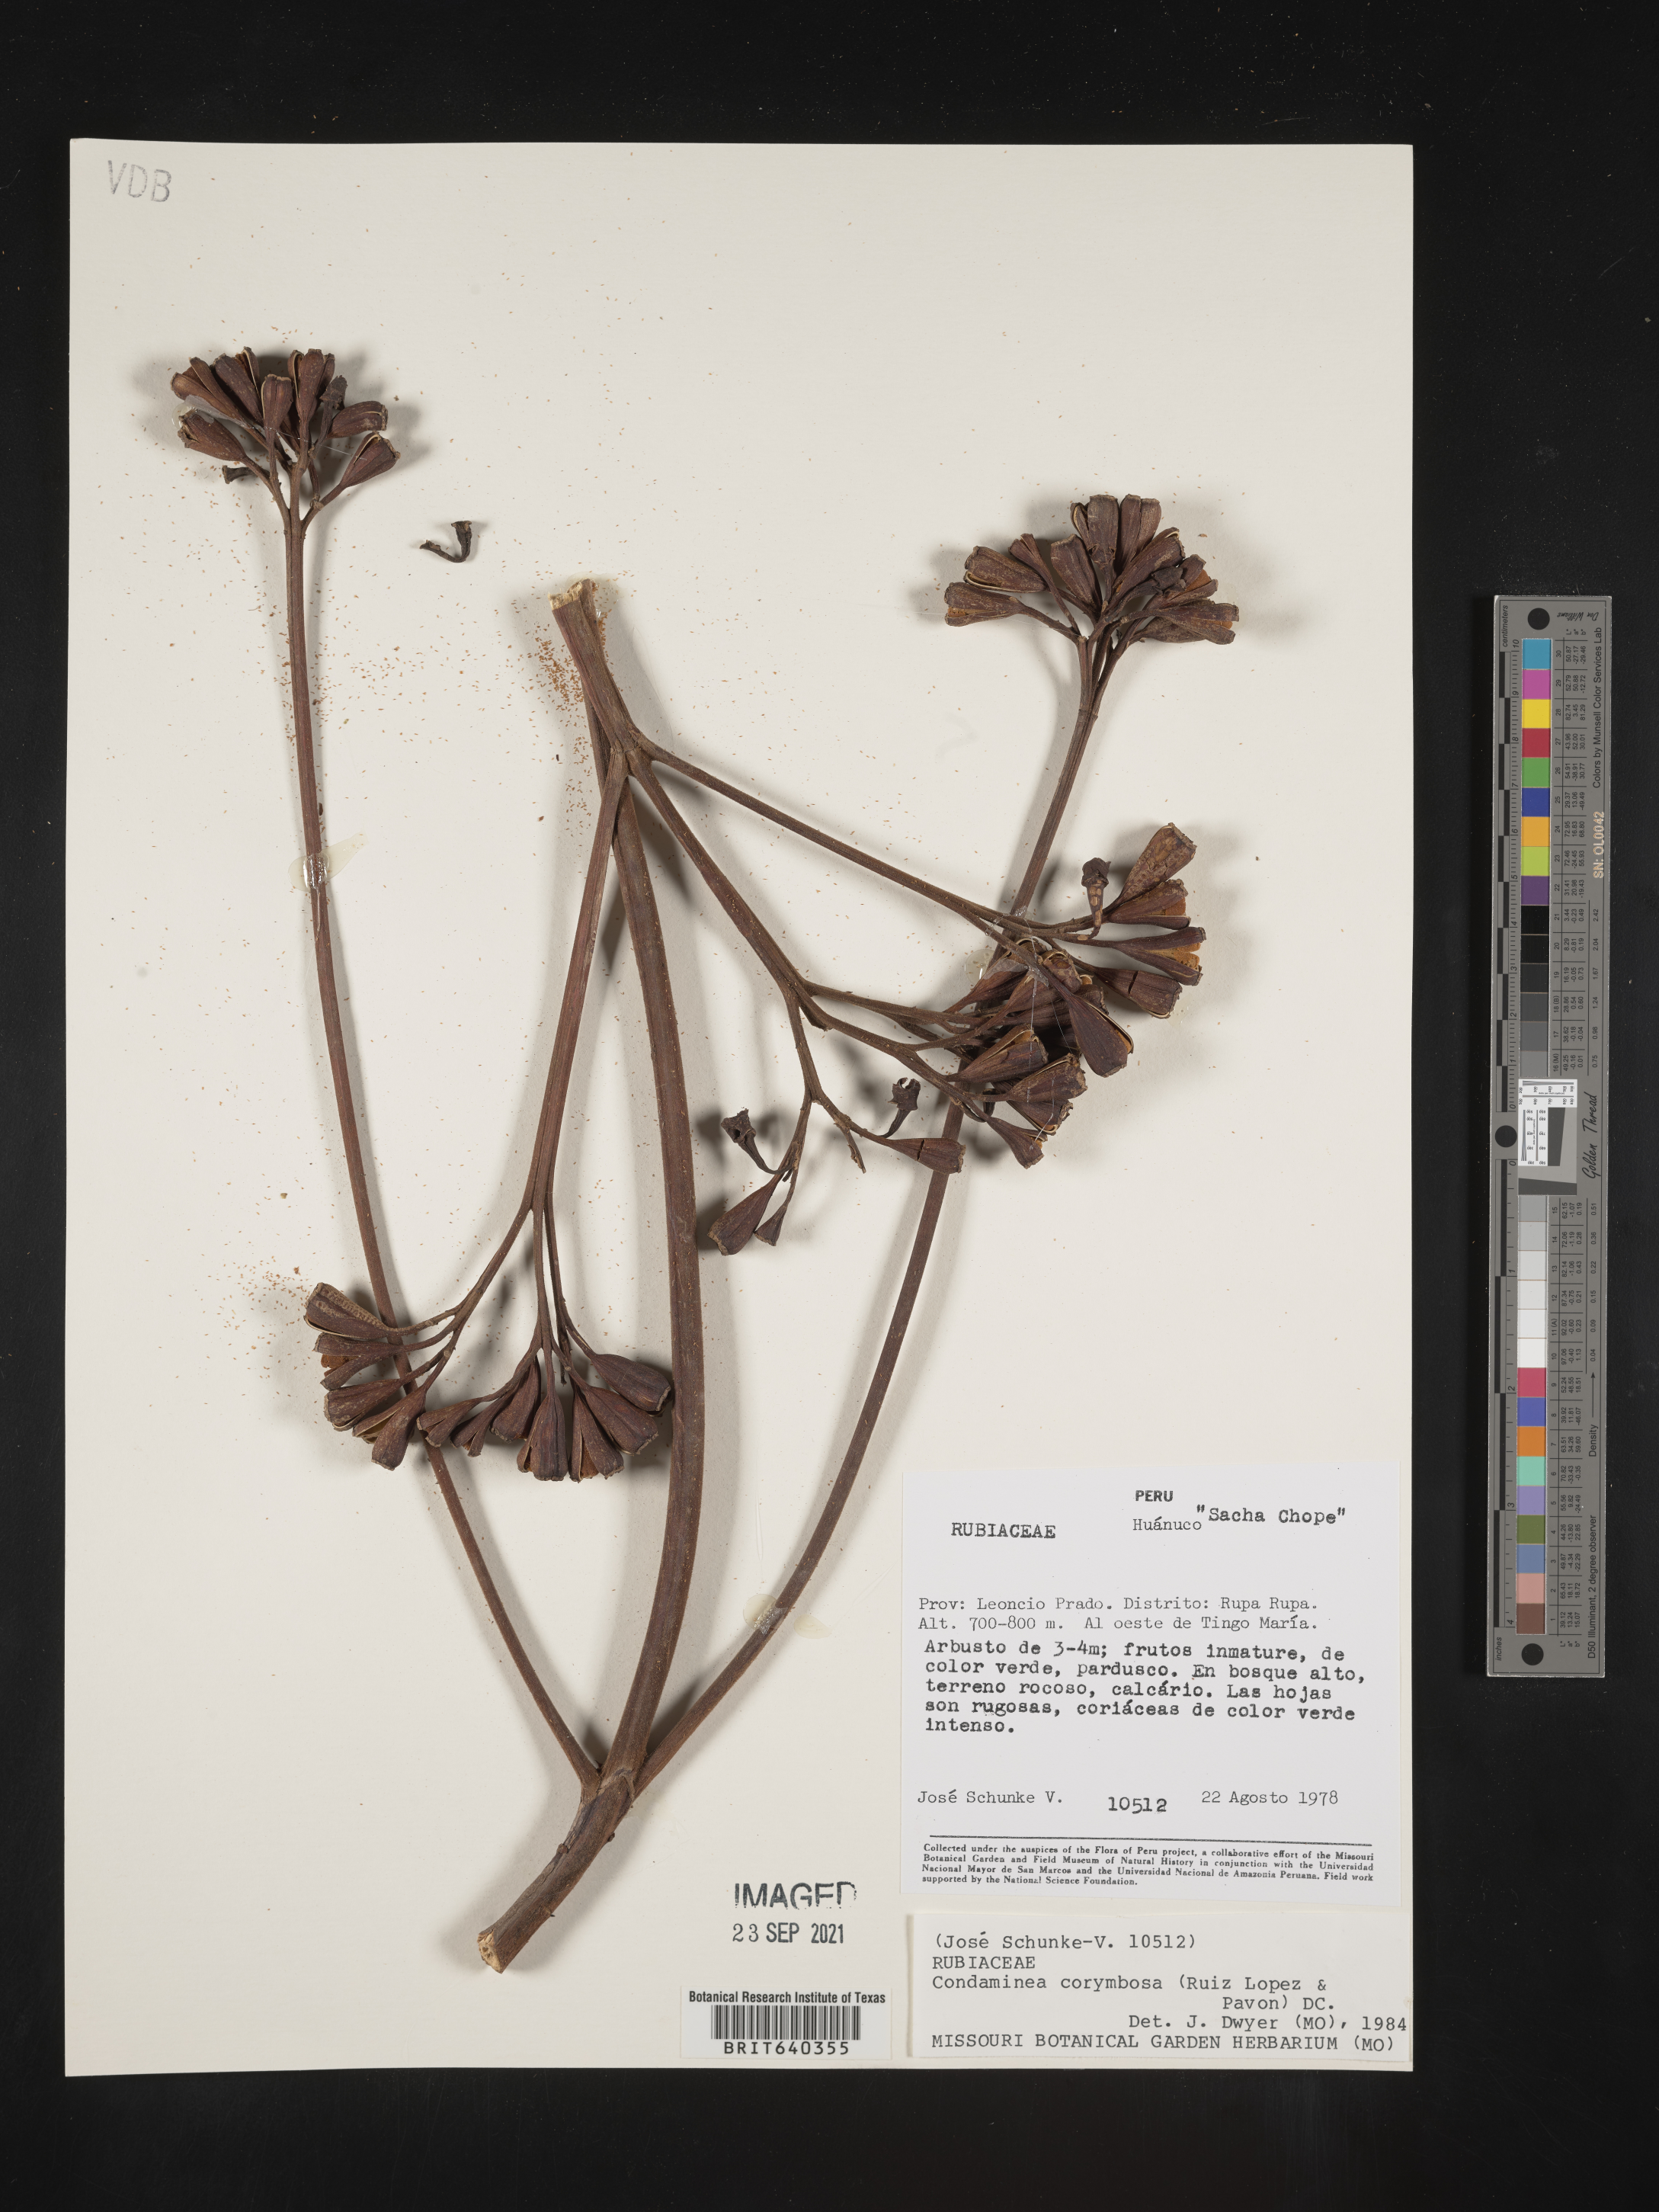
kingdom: Plantae
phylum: Tracheophyta
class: Magnoliopsida
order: Gentianales
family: Rubiaceae
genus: Condaminea
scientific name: Condaminea
